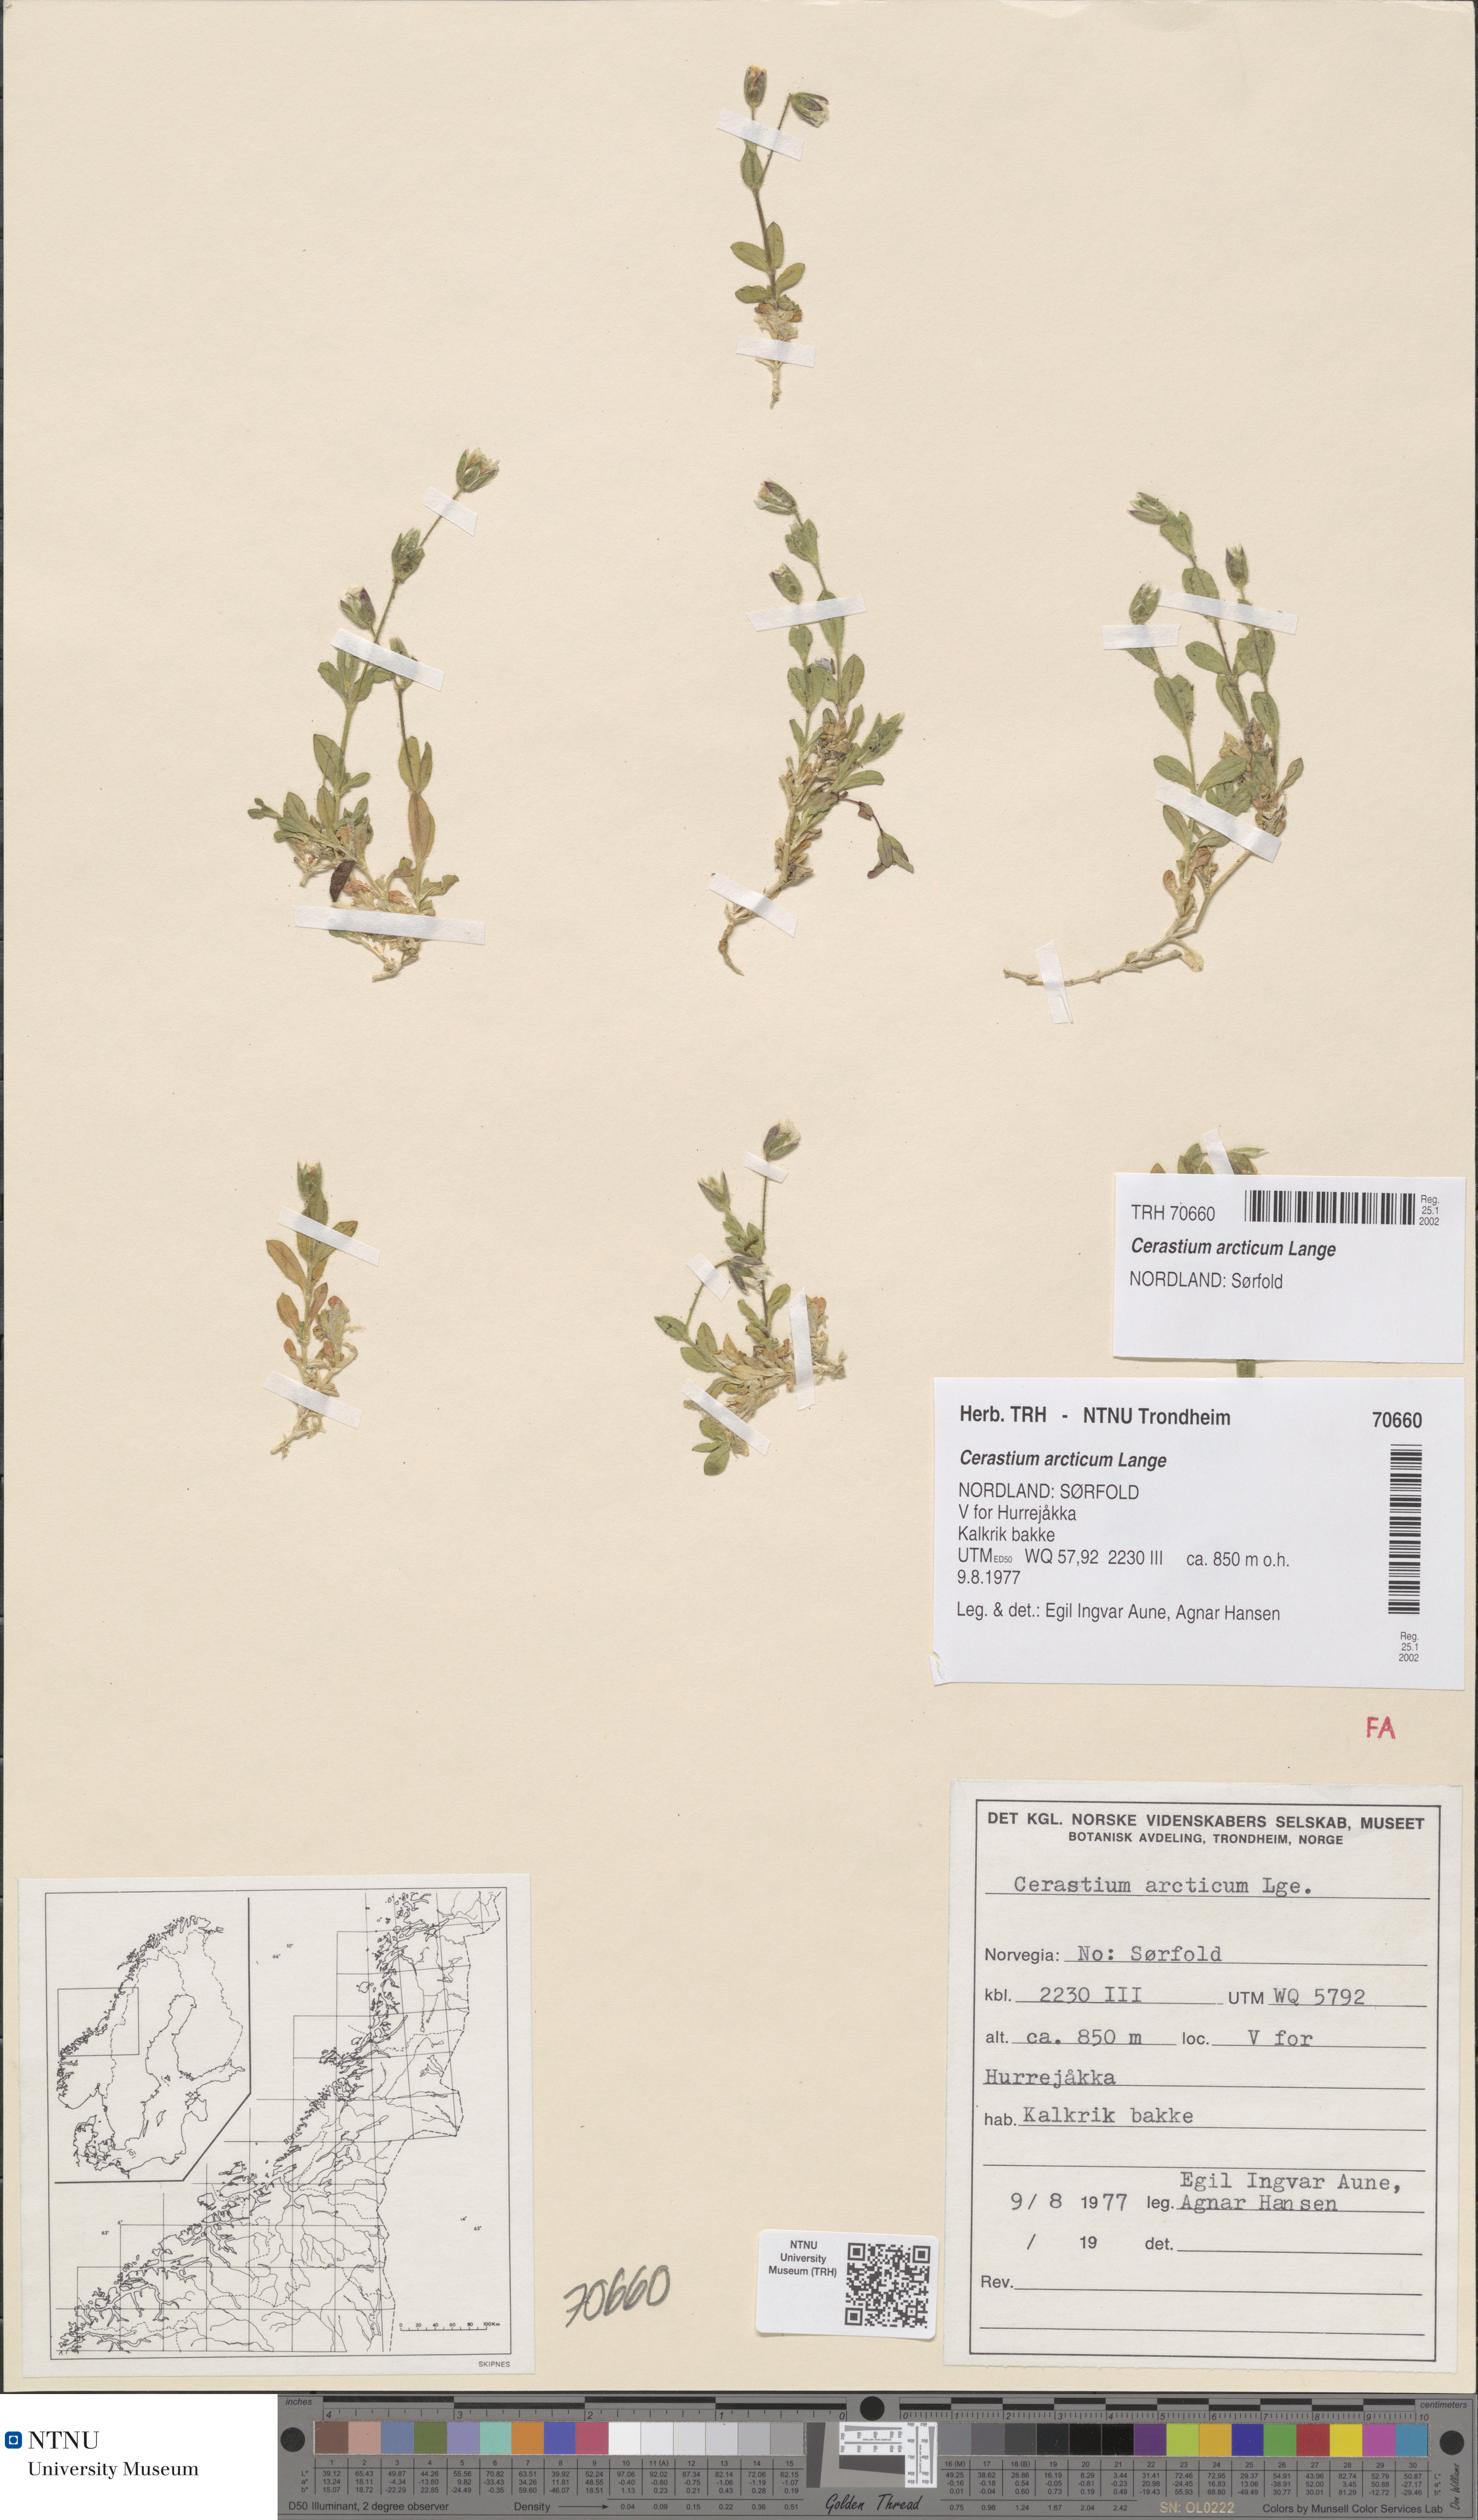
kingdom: Plantae
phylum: Tracheophyta
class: Magnoliopsida
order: Caryophyllales
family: Caryophyllaceae
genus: Cerastium
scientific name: Cerastium nigrescens
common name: Shetland mouse-ear
